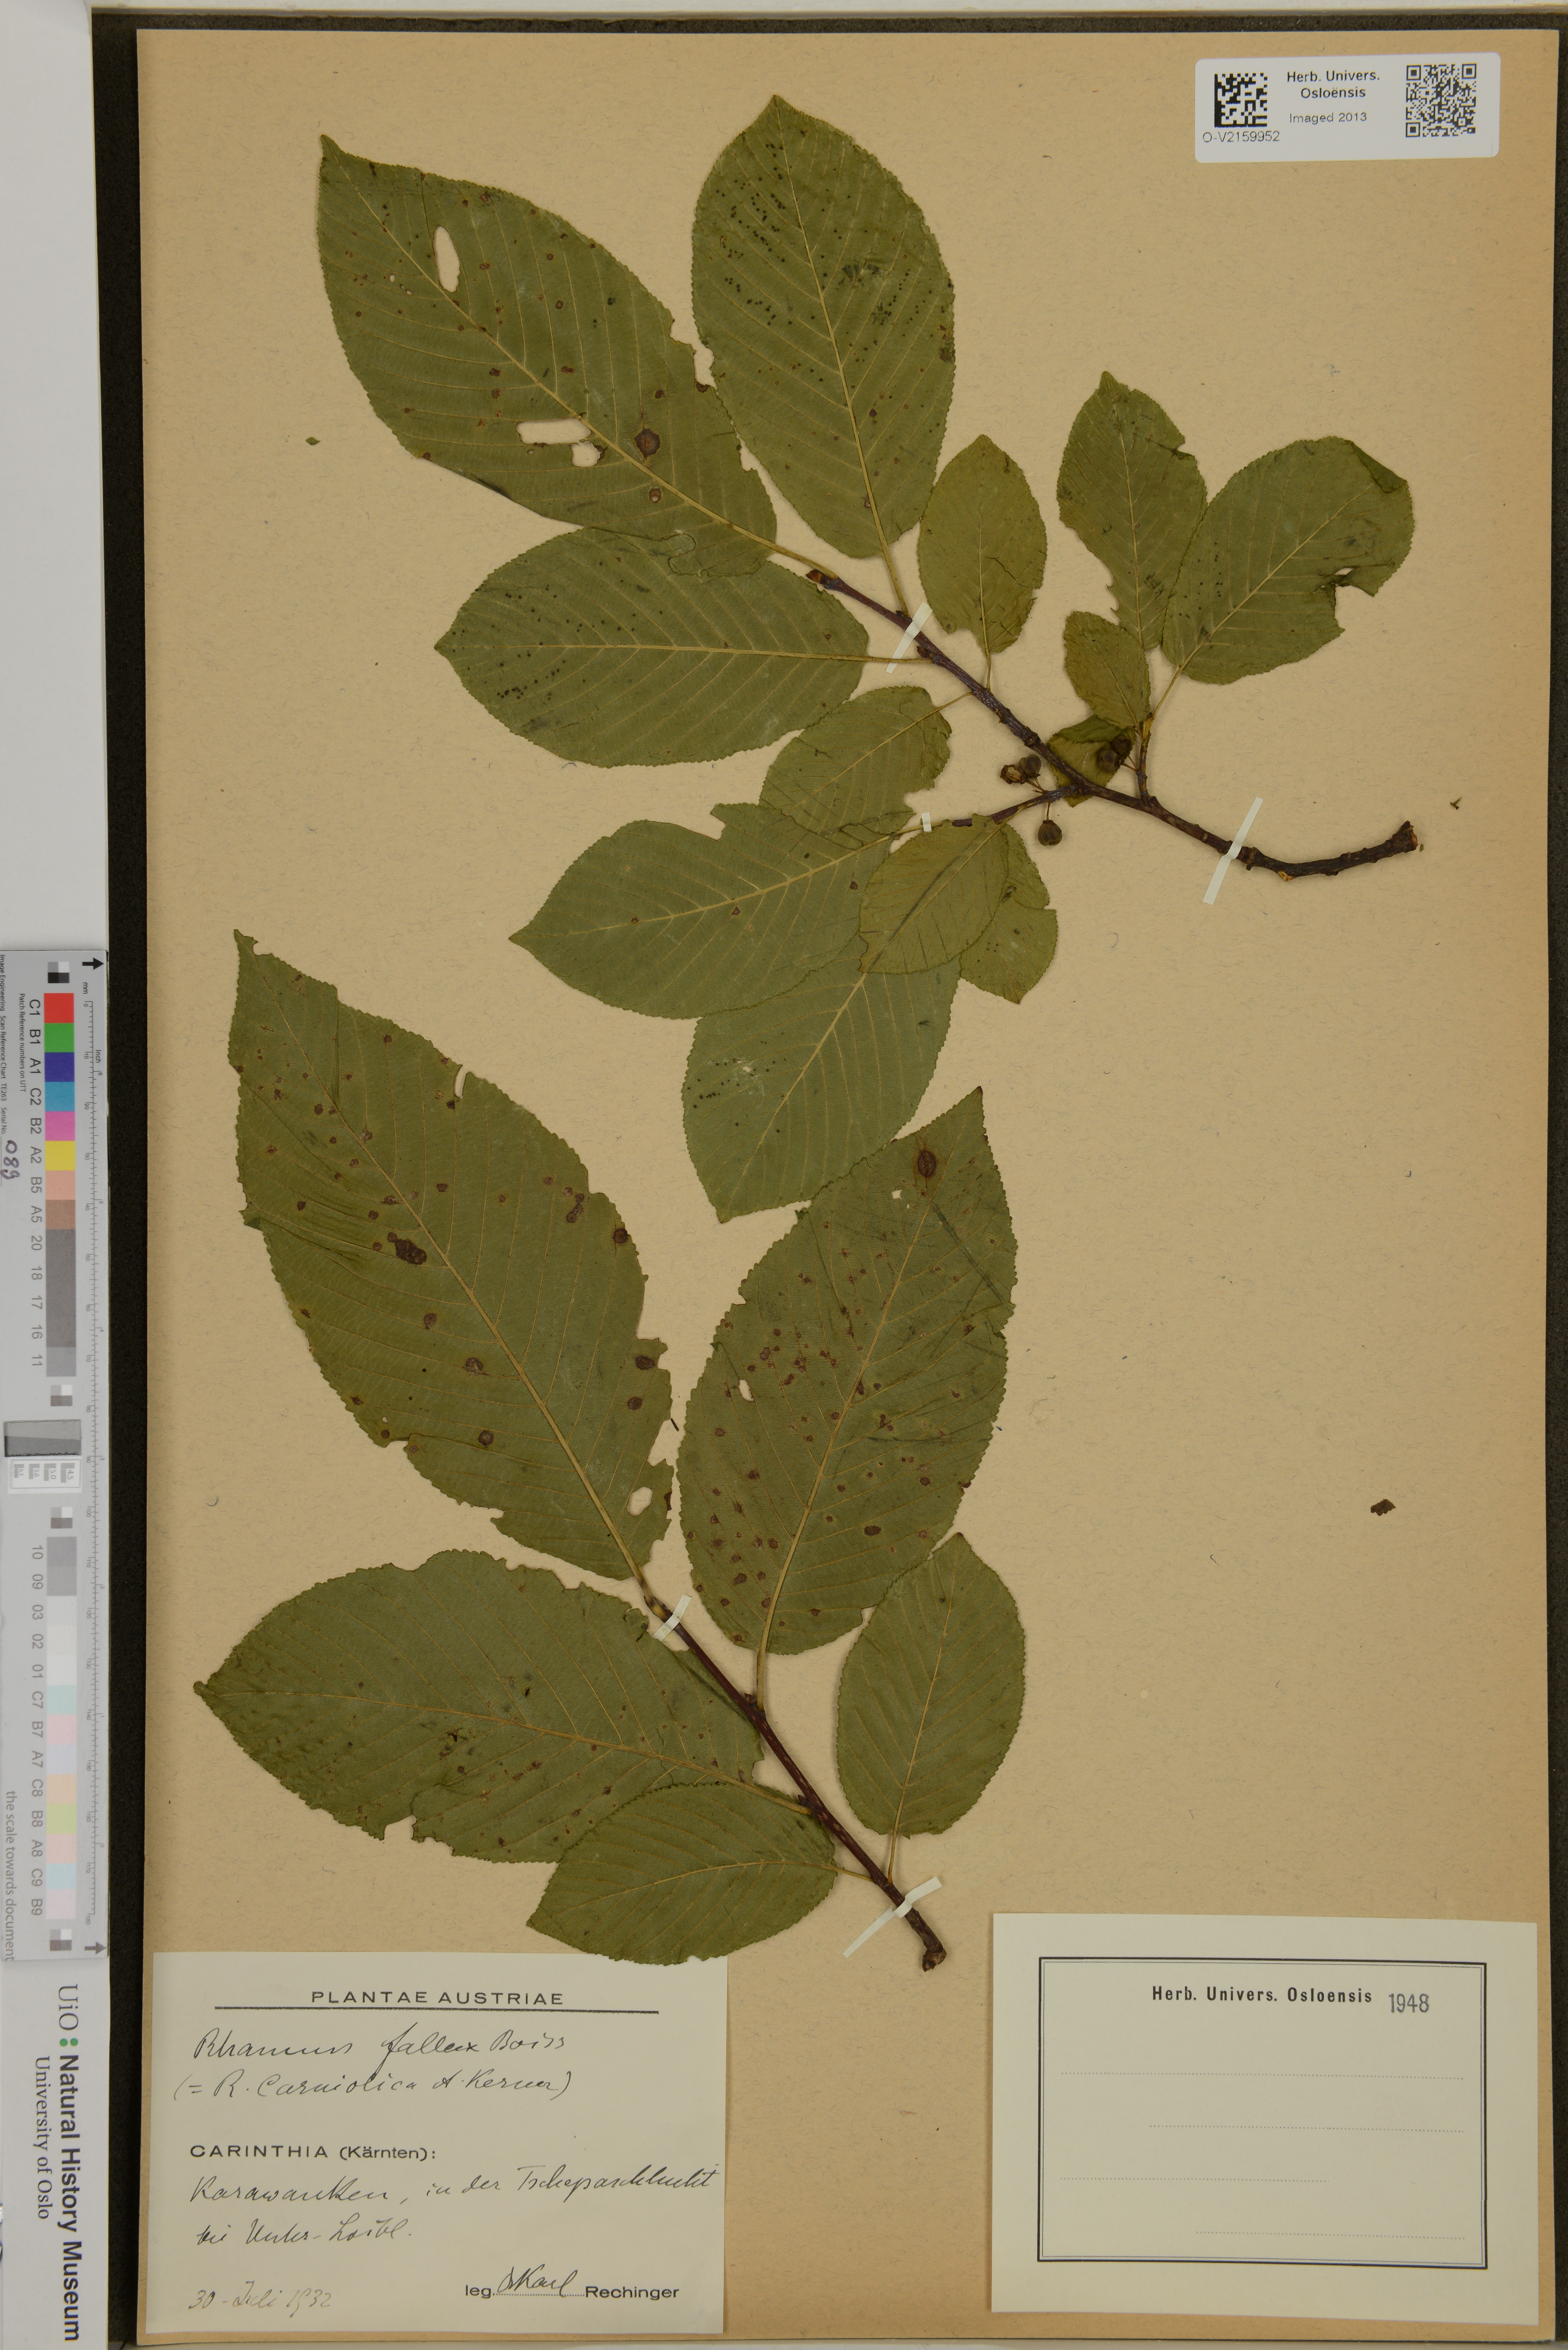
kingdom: Plantae
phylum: Tracheophyta
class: Magnoliopsida
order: Rosales
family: Rhamnaceae
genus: Atadinus
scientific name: Atadinus fallax
